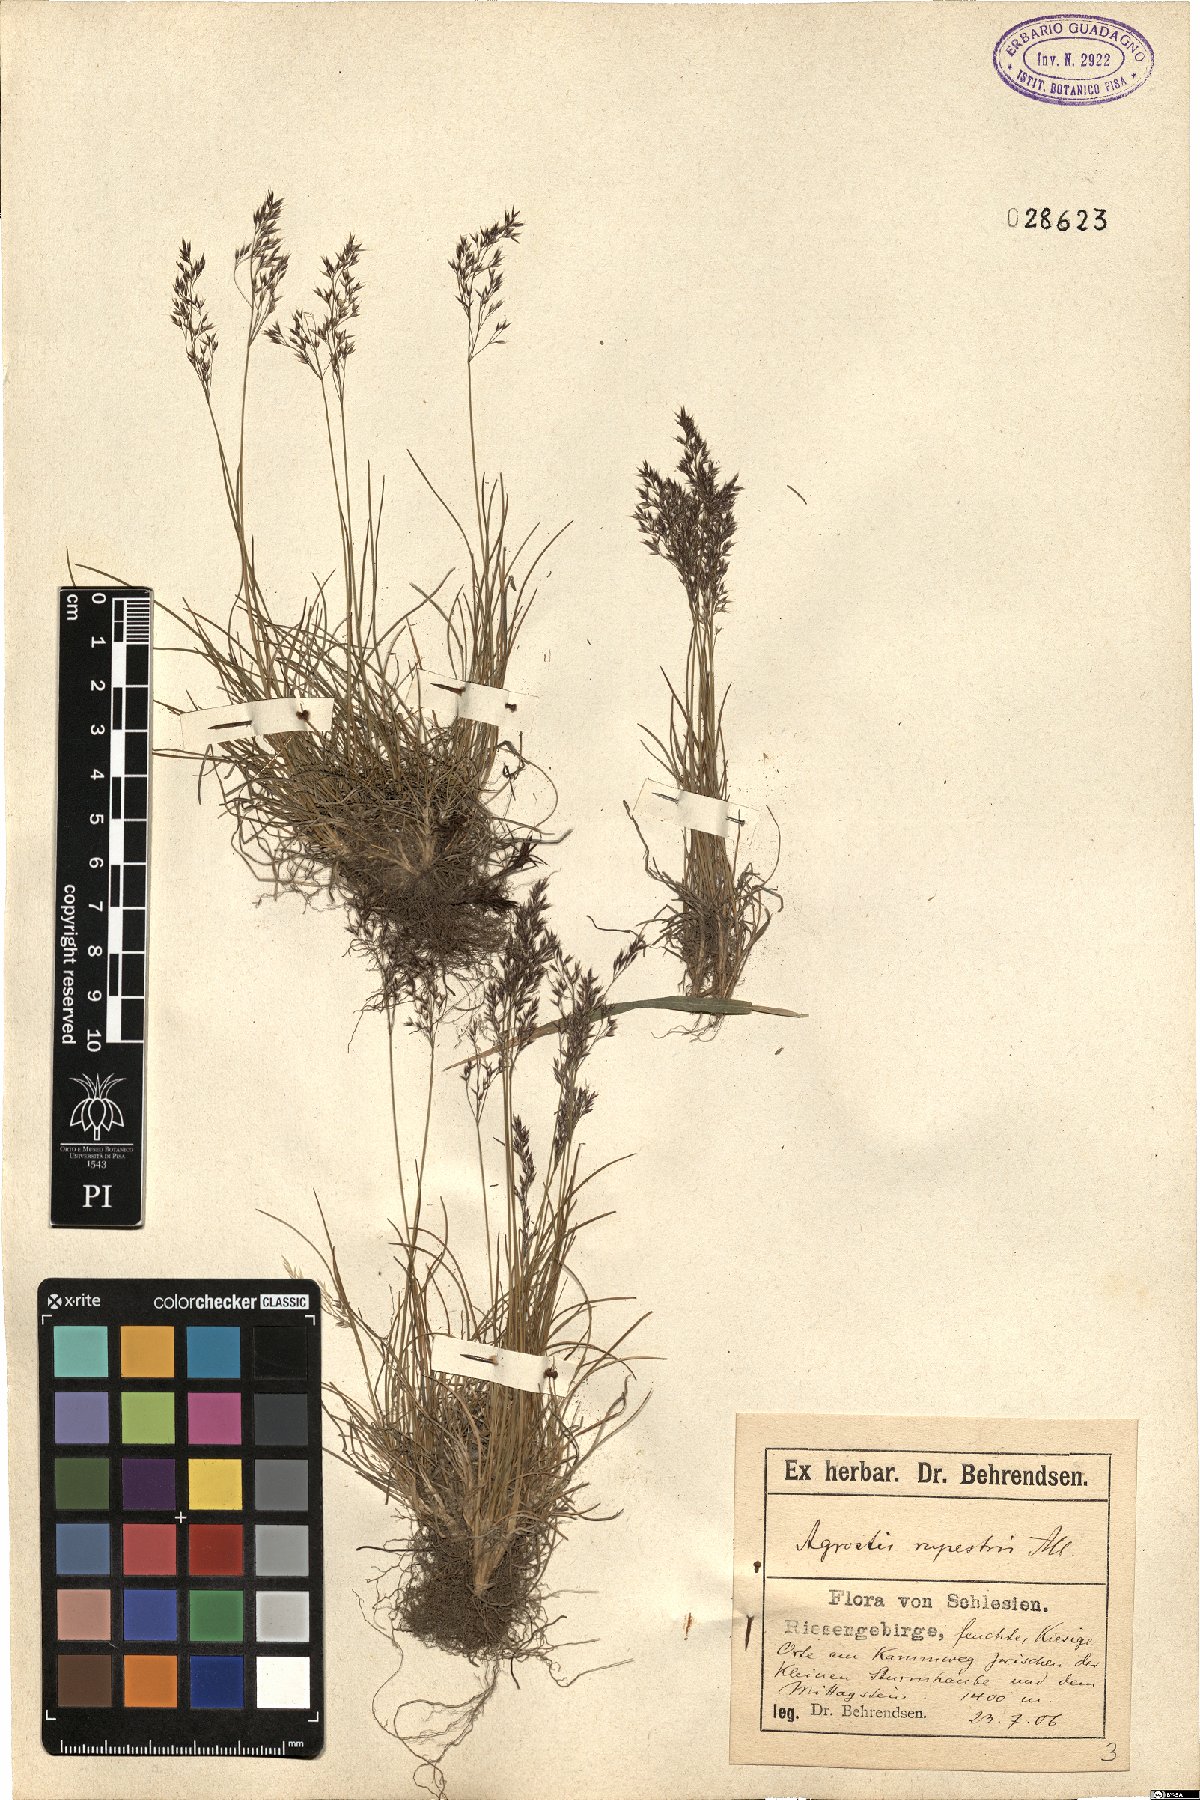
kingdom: Plantae
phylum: Tracheophyta
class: Liliopsida
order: Poales
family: Poaceae
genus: Agrostis
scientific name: Agrostis rupestris
